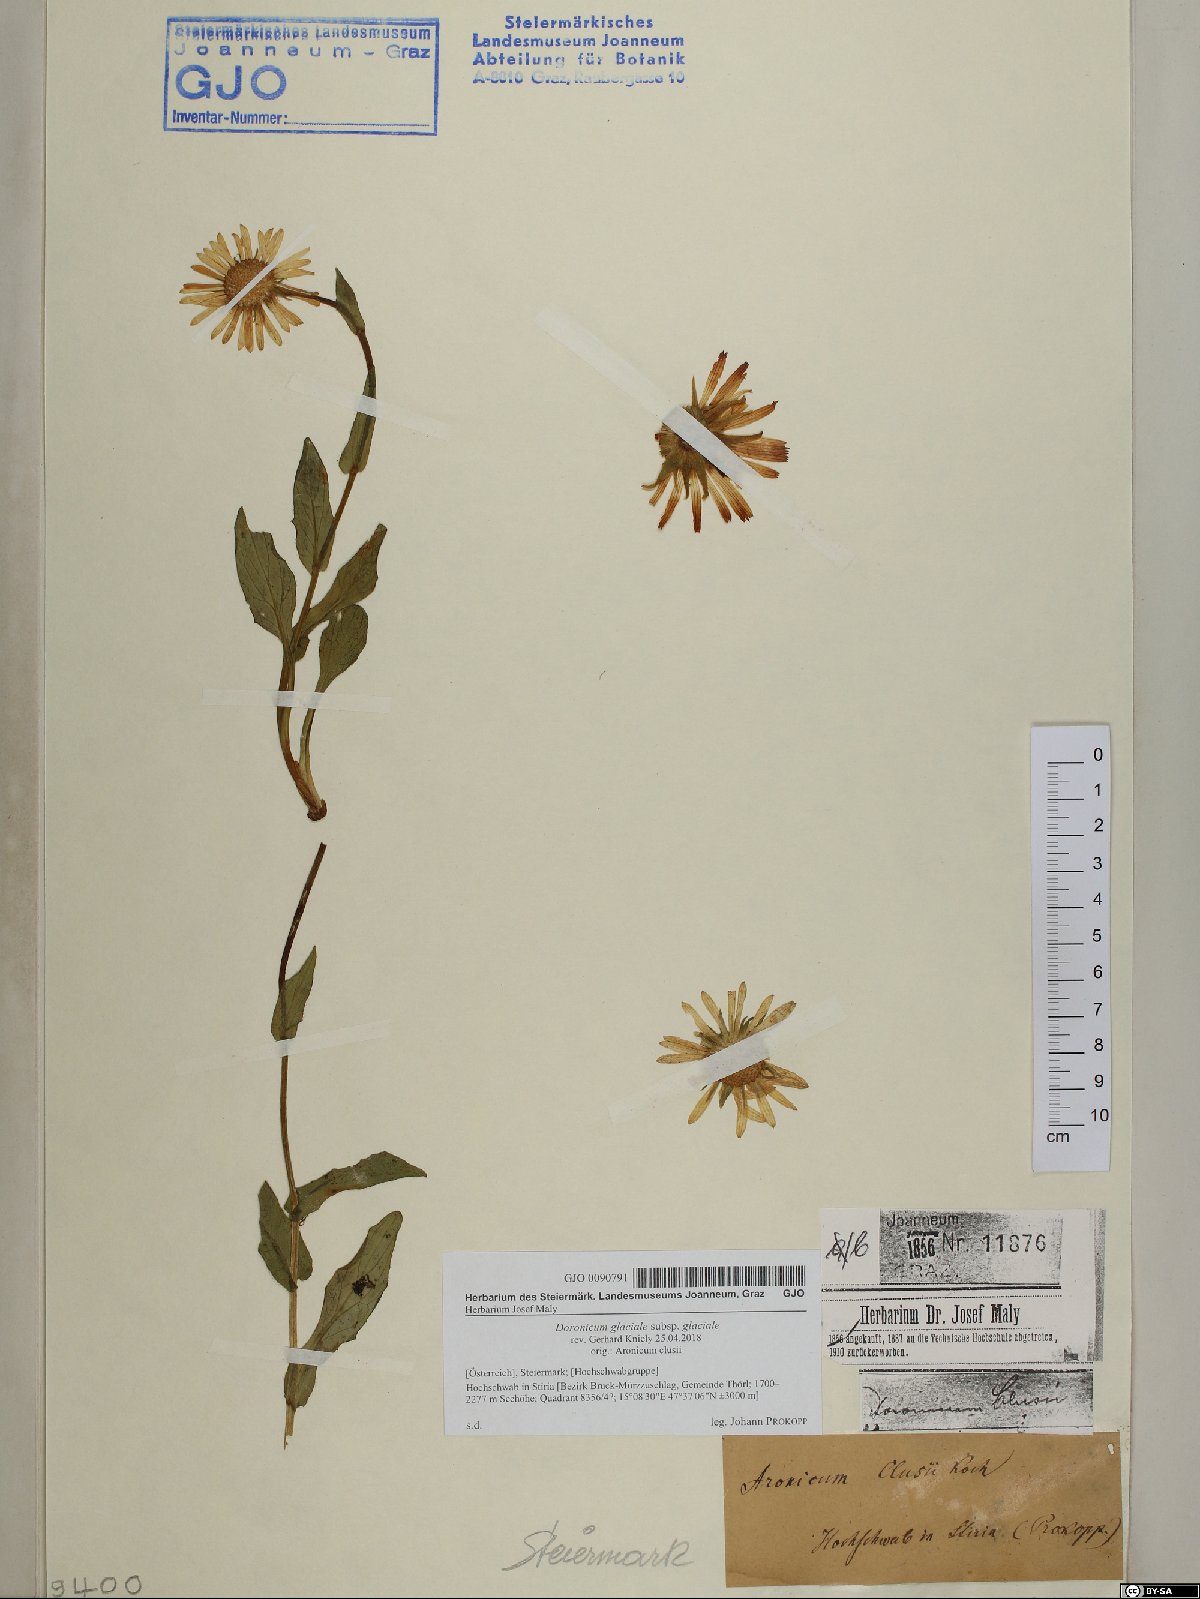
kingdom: Plantae
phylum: Tracheophyta
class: Magnoliopsida
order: Asterales
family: Asteraceae
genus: Doronicum
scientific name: Doronicum glaciale
